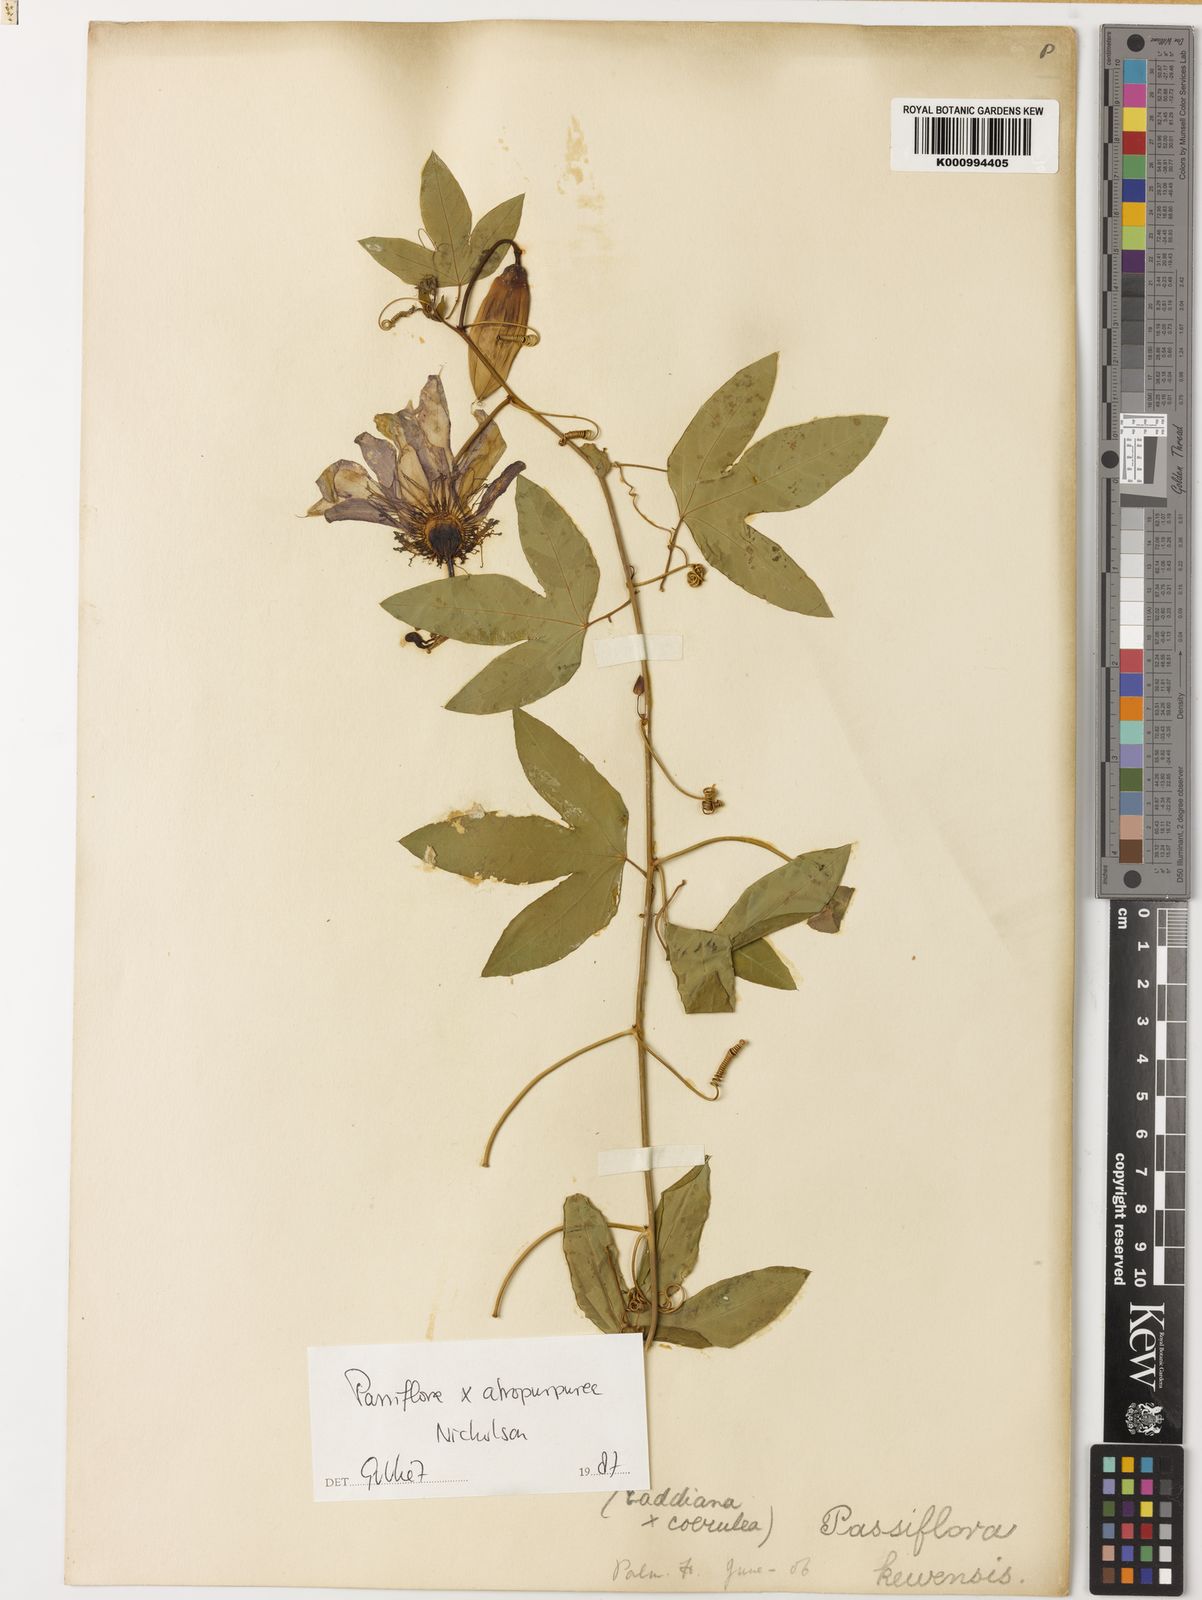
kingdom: Plantae
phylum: Tracheophyta
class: Magnoliopsida
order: Malpighiales
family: Passifloraceae
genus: Passiflora
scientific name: Passiflora
